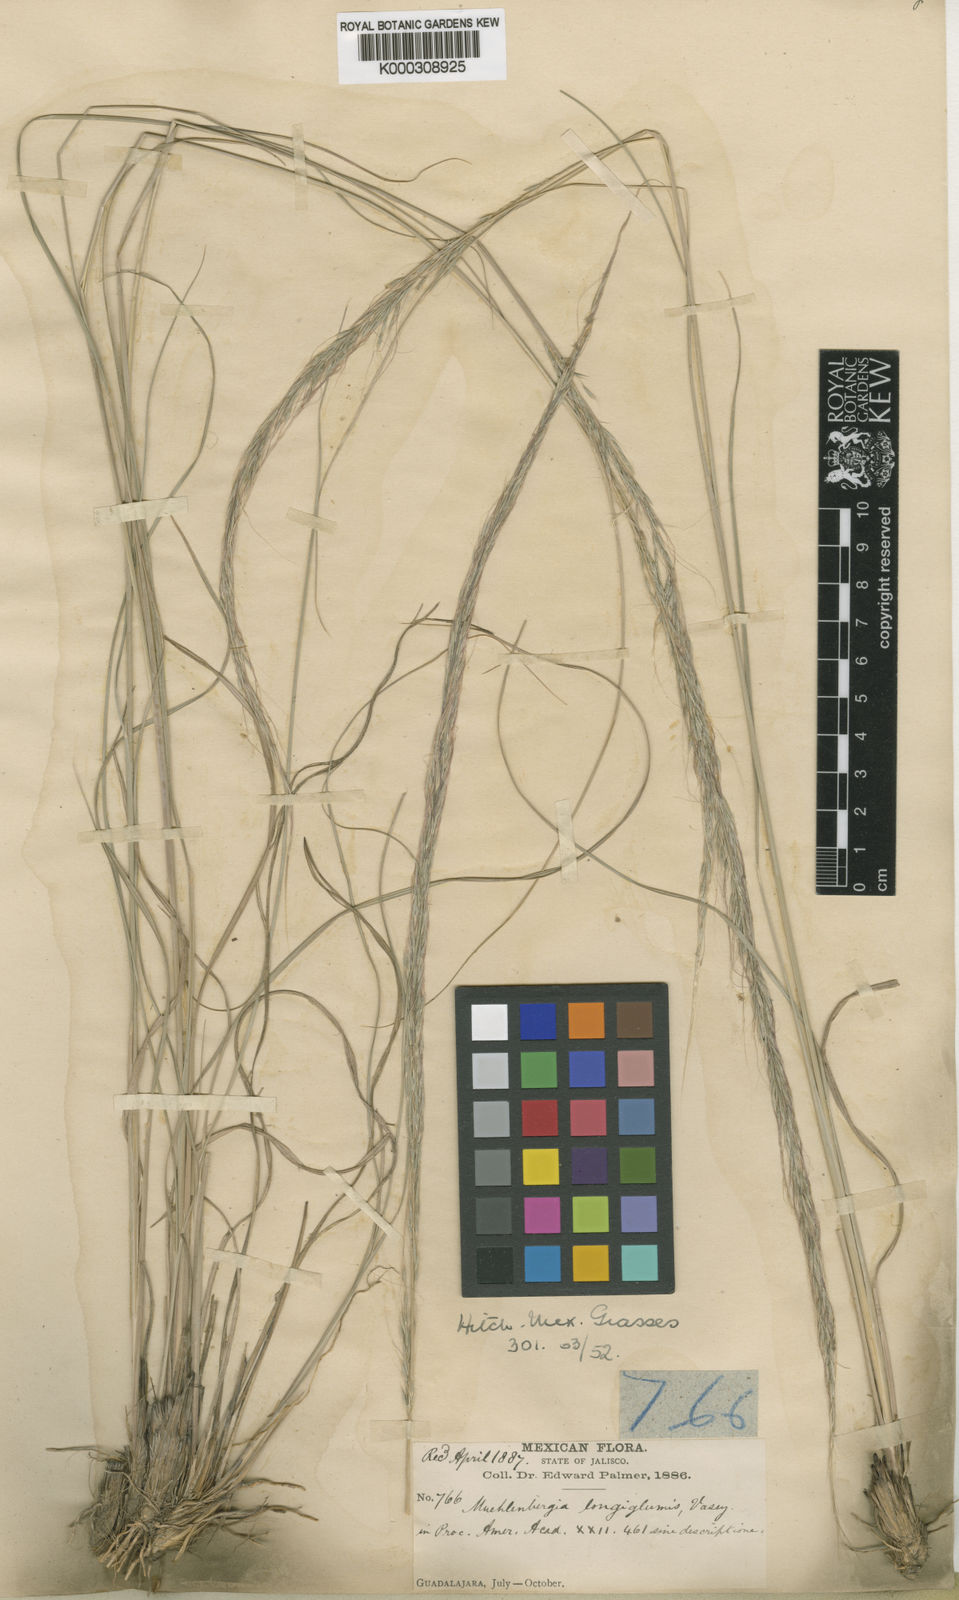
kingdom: Plantae
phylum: Tracheophyta
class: Liliopsida
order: Poales
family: Poaceae
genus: Muhlenbergia
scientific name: Muhlenbergia longiglumis
